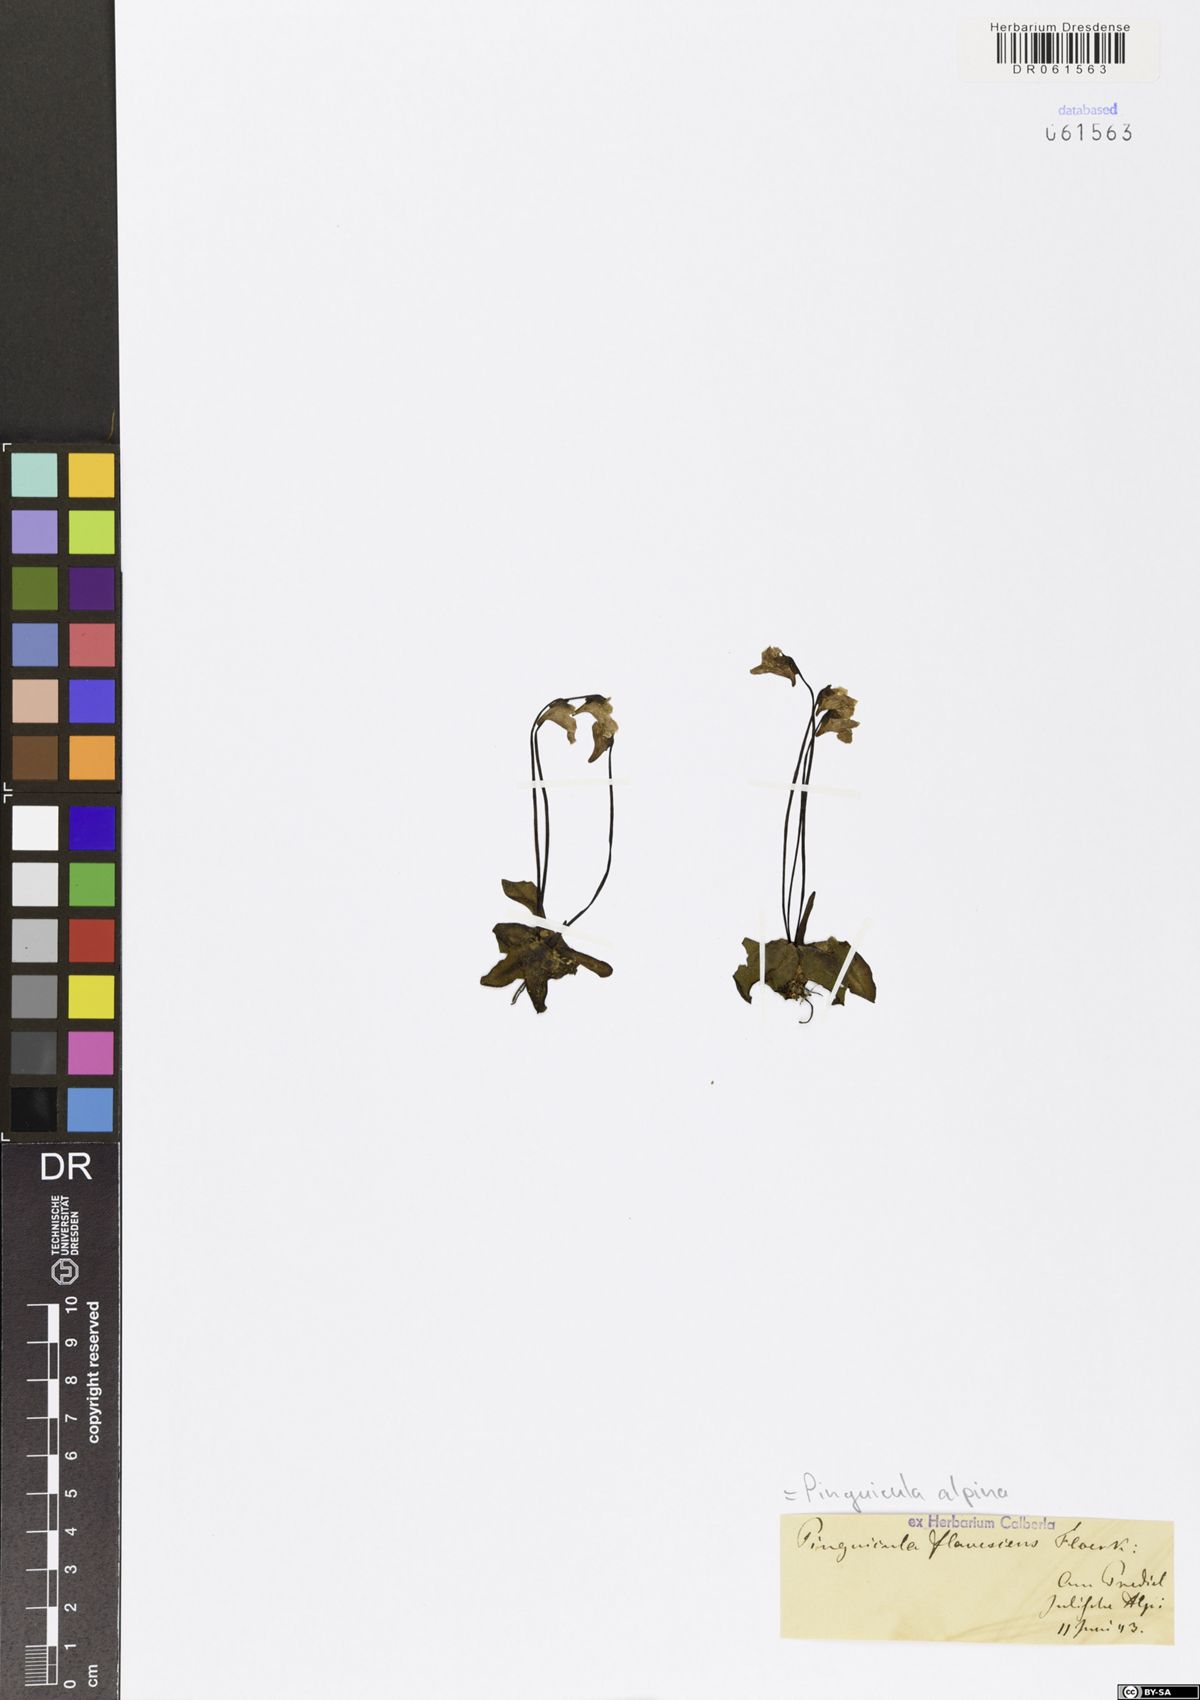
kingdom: Plantae
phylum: Tracheophyta
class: Magnoliopsida
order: Lamiales
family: Lentibulariaceae
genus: Pinguicula
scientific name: Pinguicula alpina
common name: Alpine butterwort
